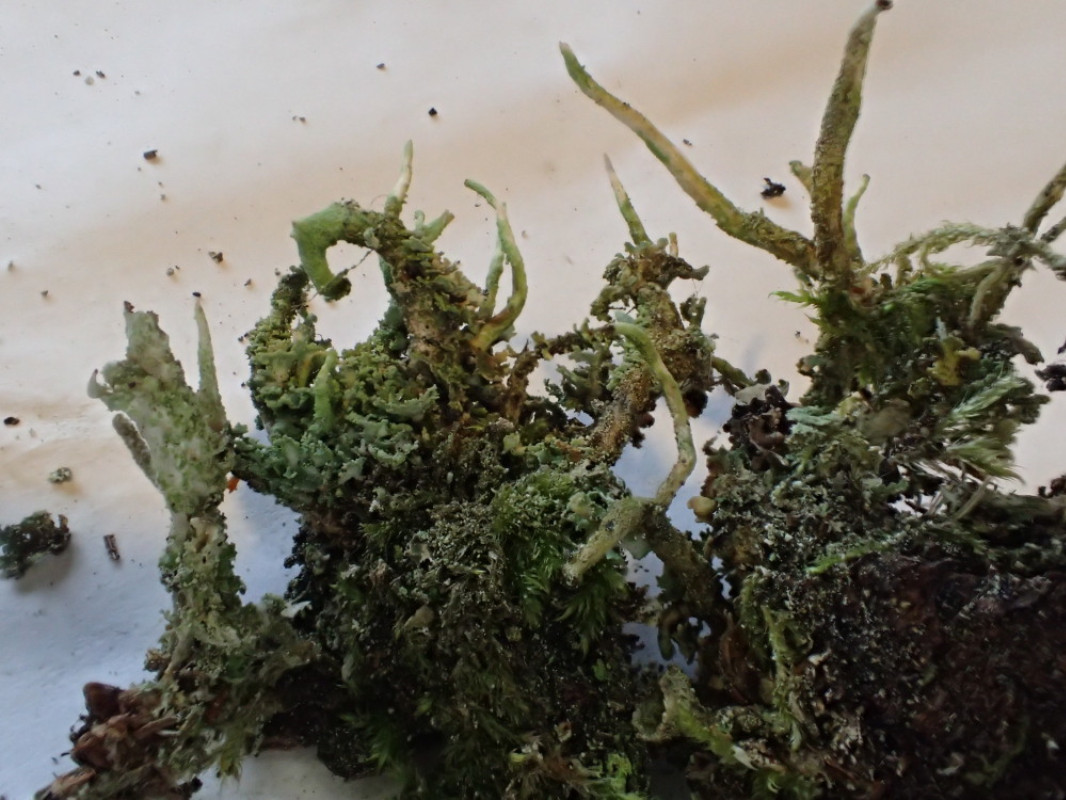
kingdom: Fungi
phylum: Ascomycota
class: Lecanoromycetes
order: Lecanorales
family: Cladoniaceae
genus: Cladonia
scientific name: Cladonia glauca
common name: grågrøn bægerlav
